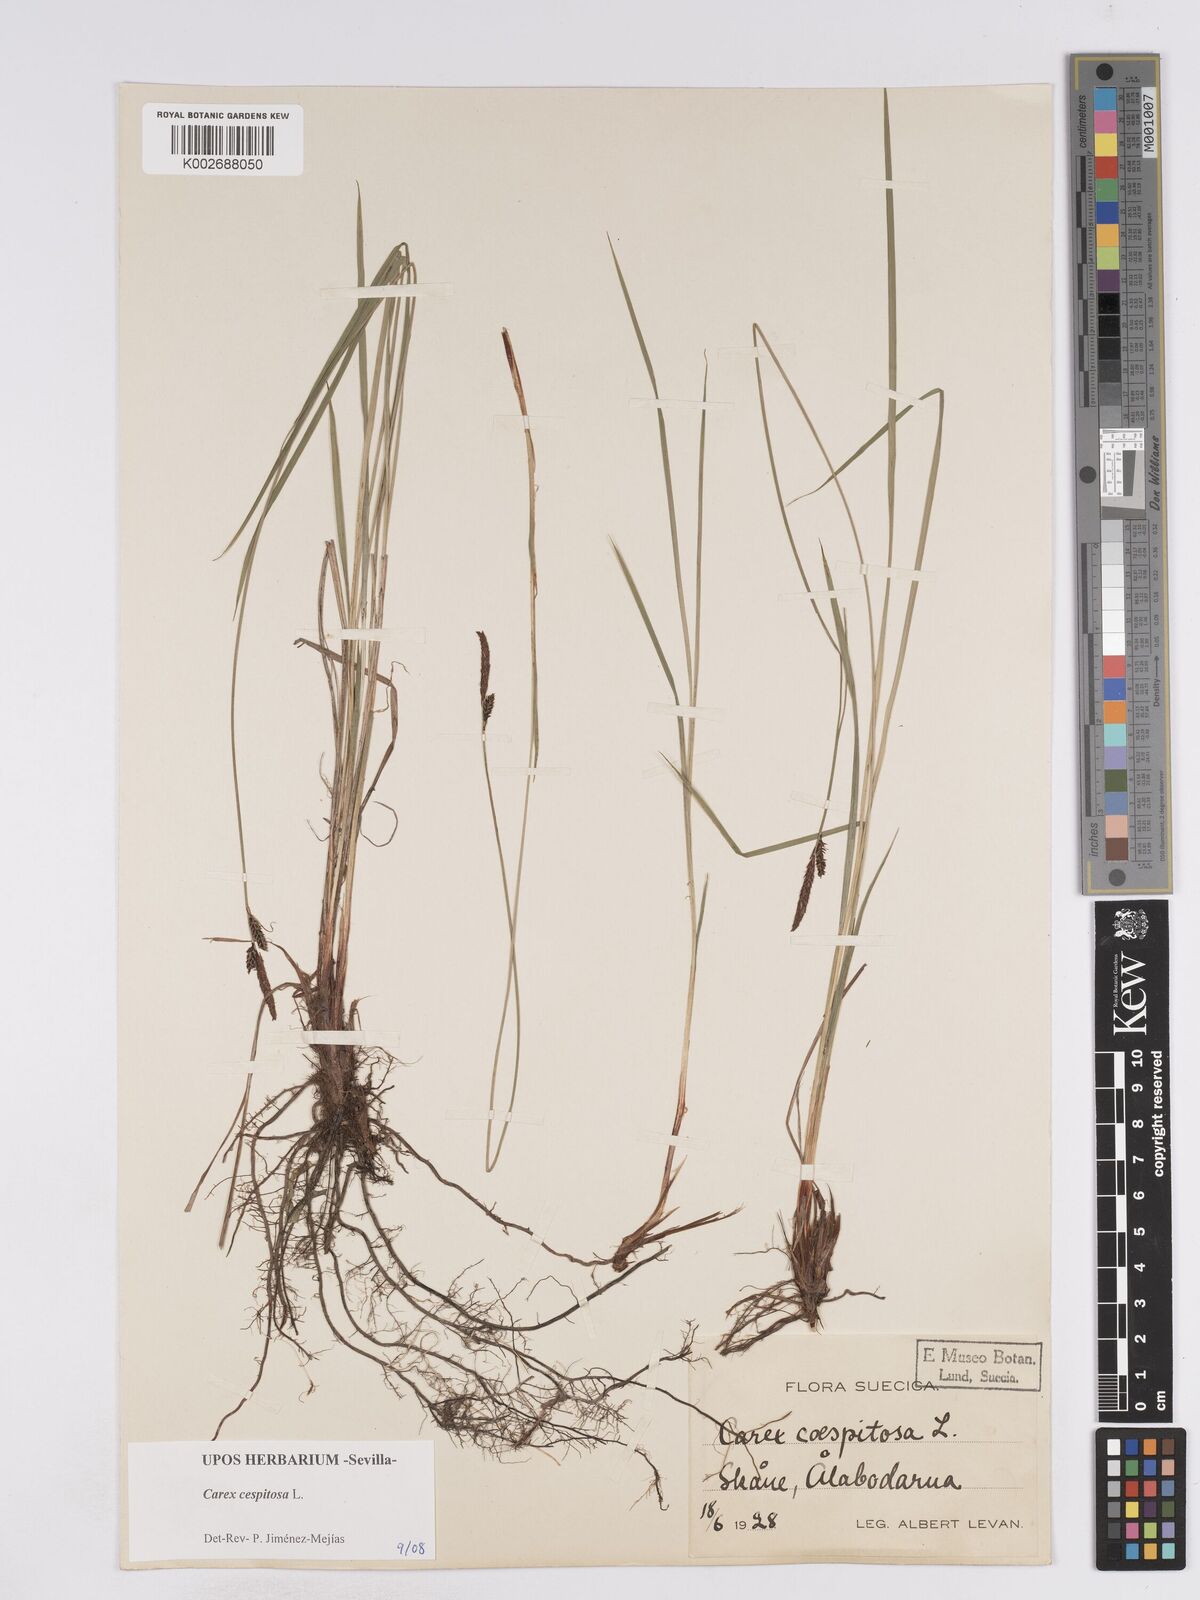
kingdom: Plantae
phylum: Tracheophyta
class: Liliopsida
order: Poales
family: Cyperaceae
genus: Carex
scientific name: Carex
